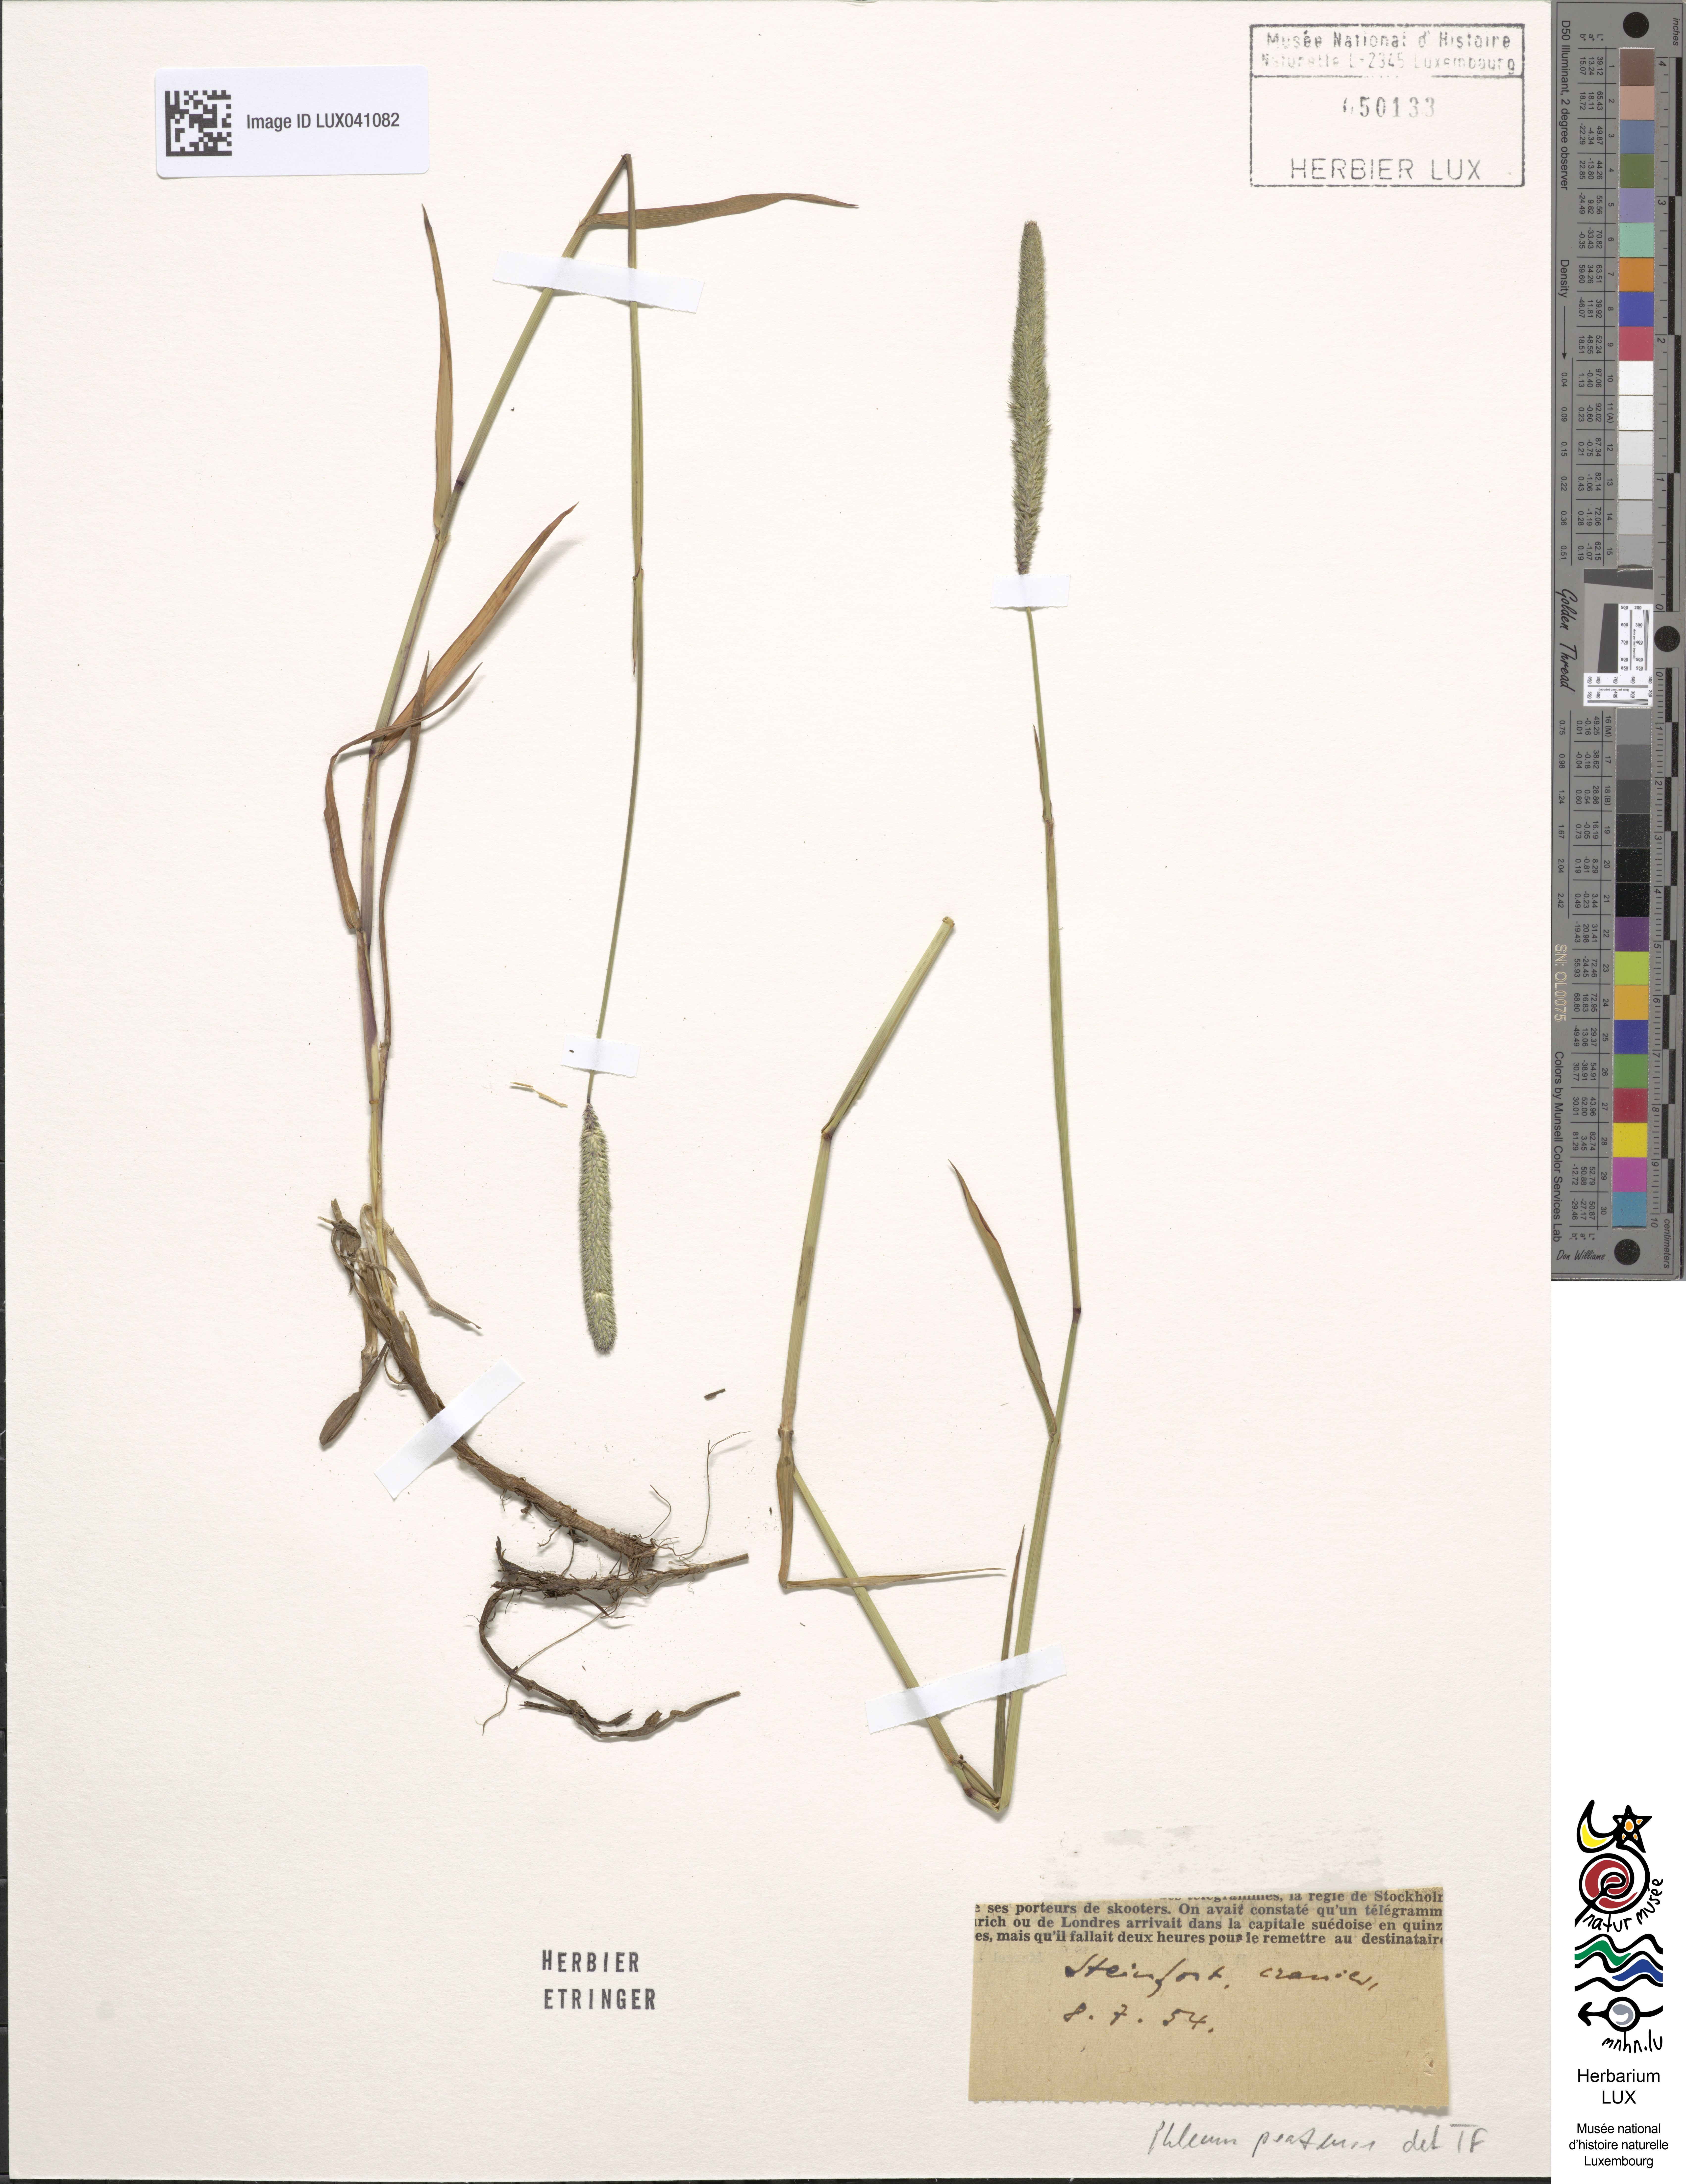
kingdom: Plantae
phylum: Tracheophyta
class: Liliopsida
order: Poales
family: Poaceae
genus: Phleum
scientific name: Phleum pratense
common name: Timothy grass
